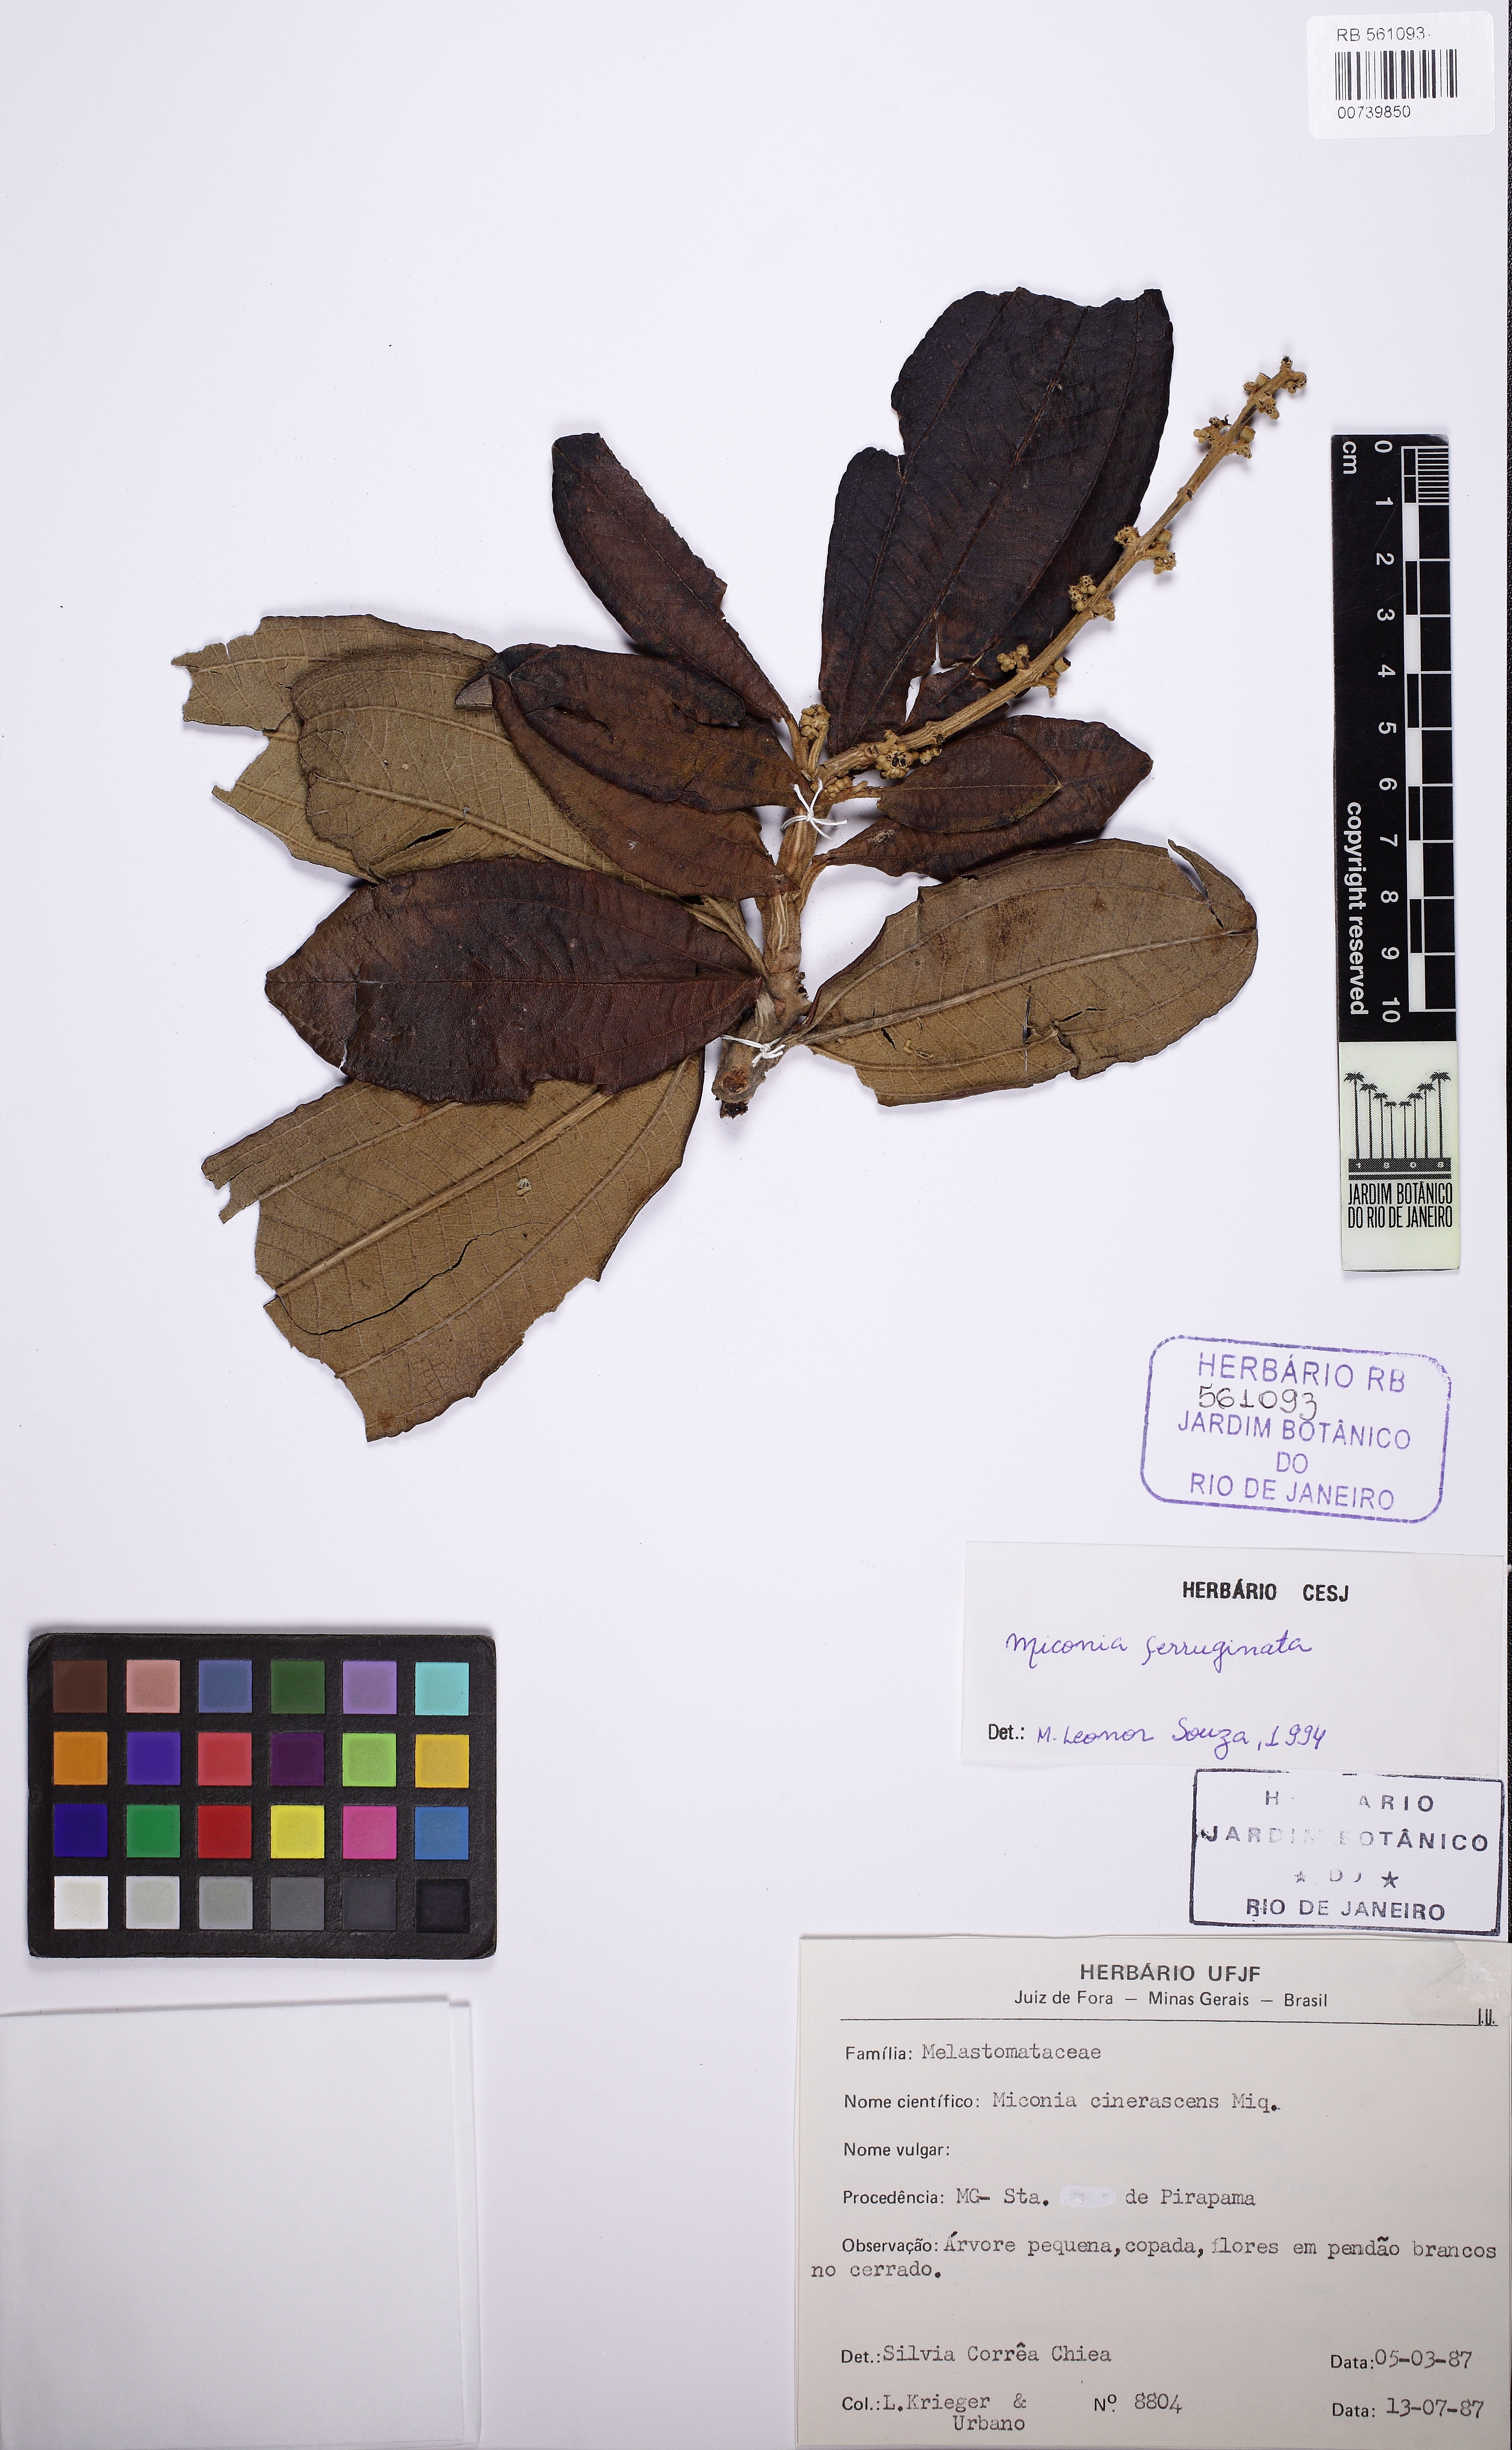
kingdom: Plantae
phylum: Tracheophyta
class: Magnoliopsida
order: Myrtales
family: Melastomataceae
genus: Miconia
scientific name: Miconia ferruginata
